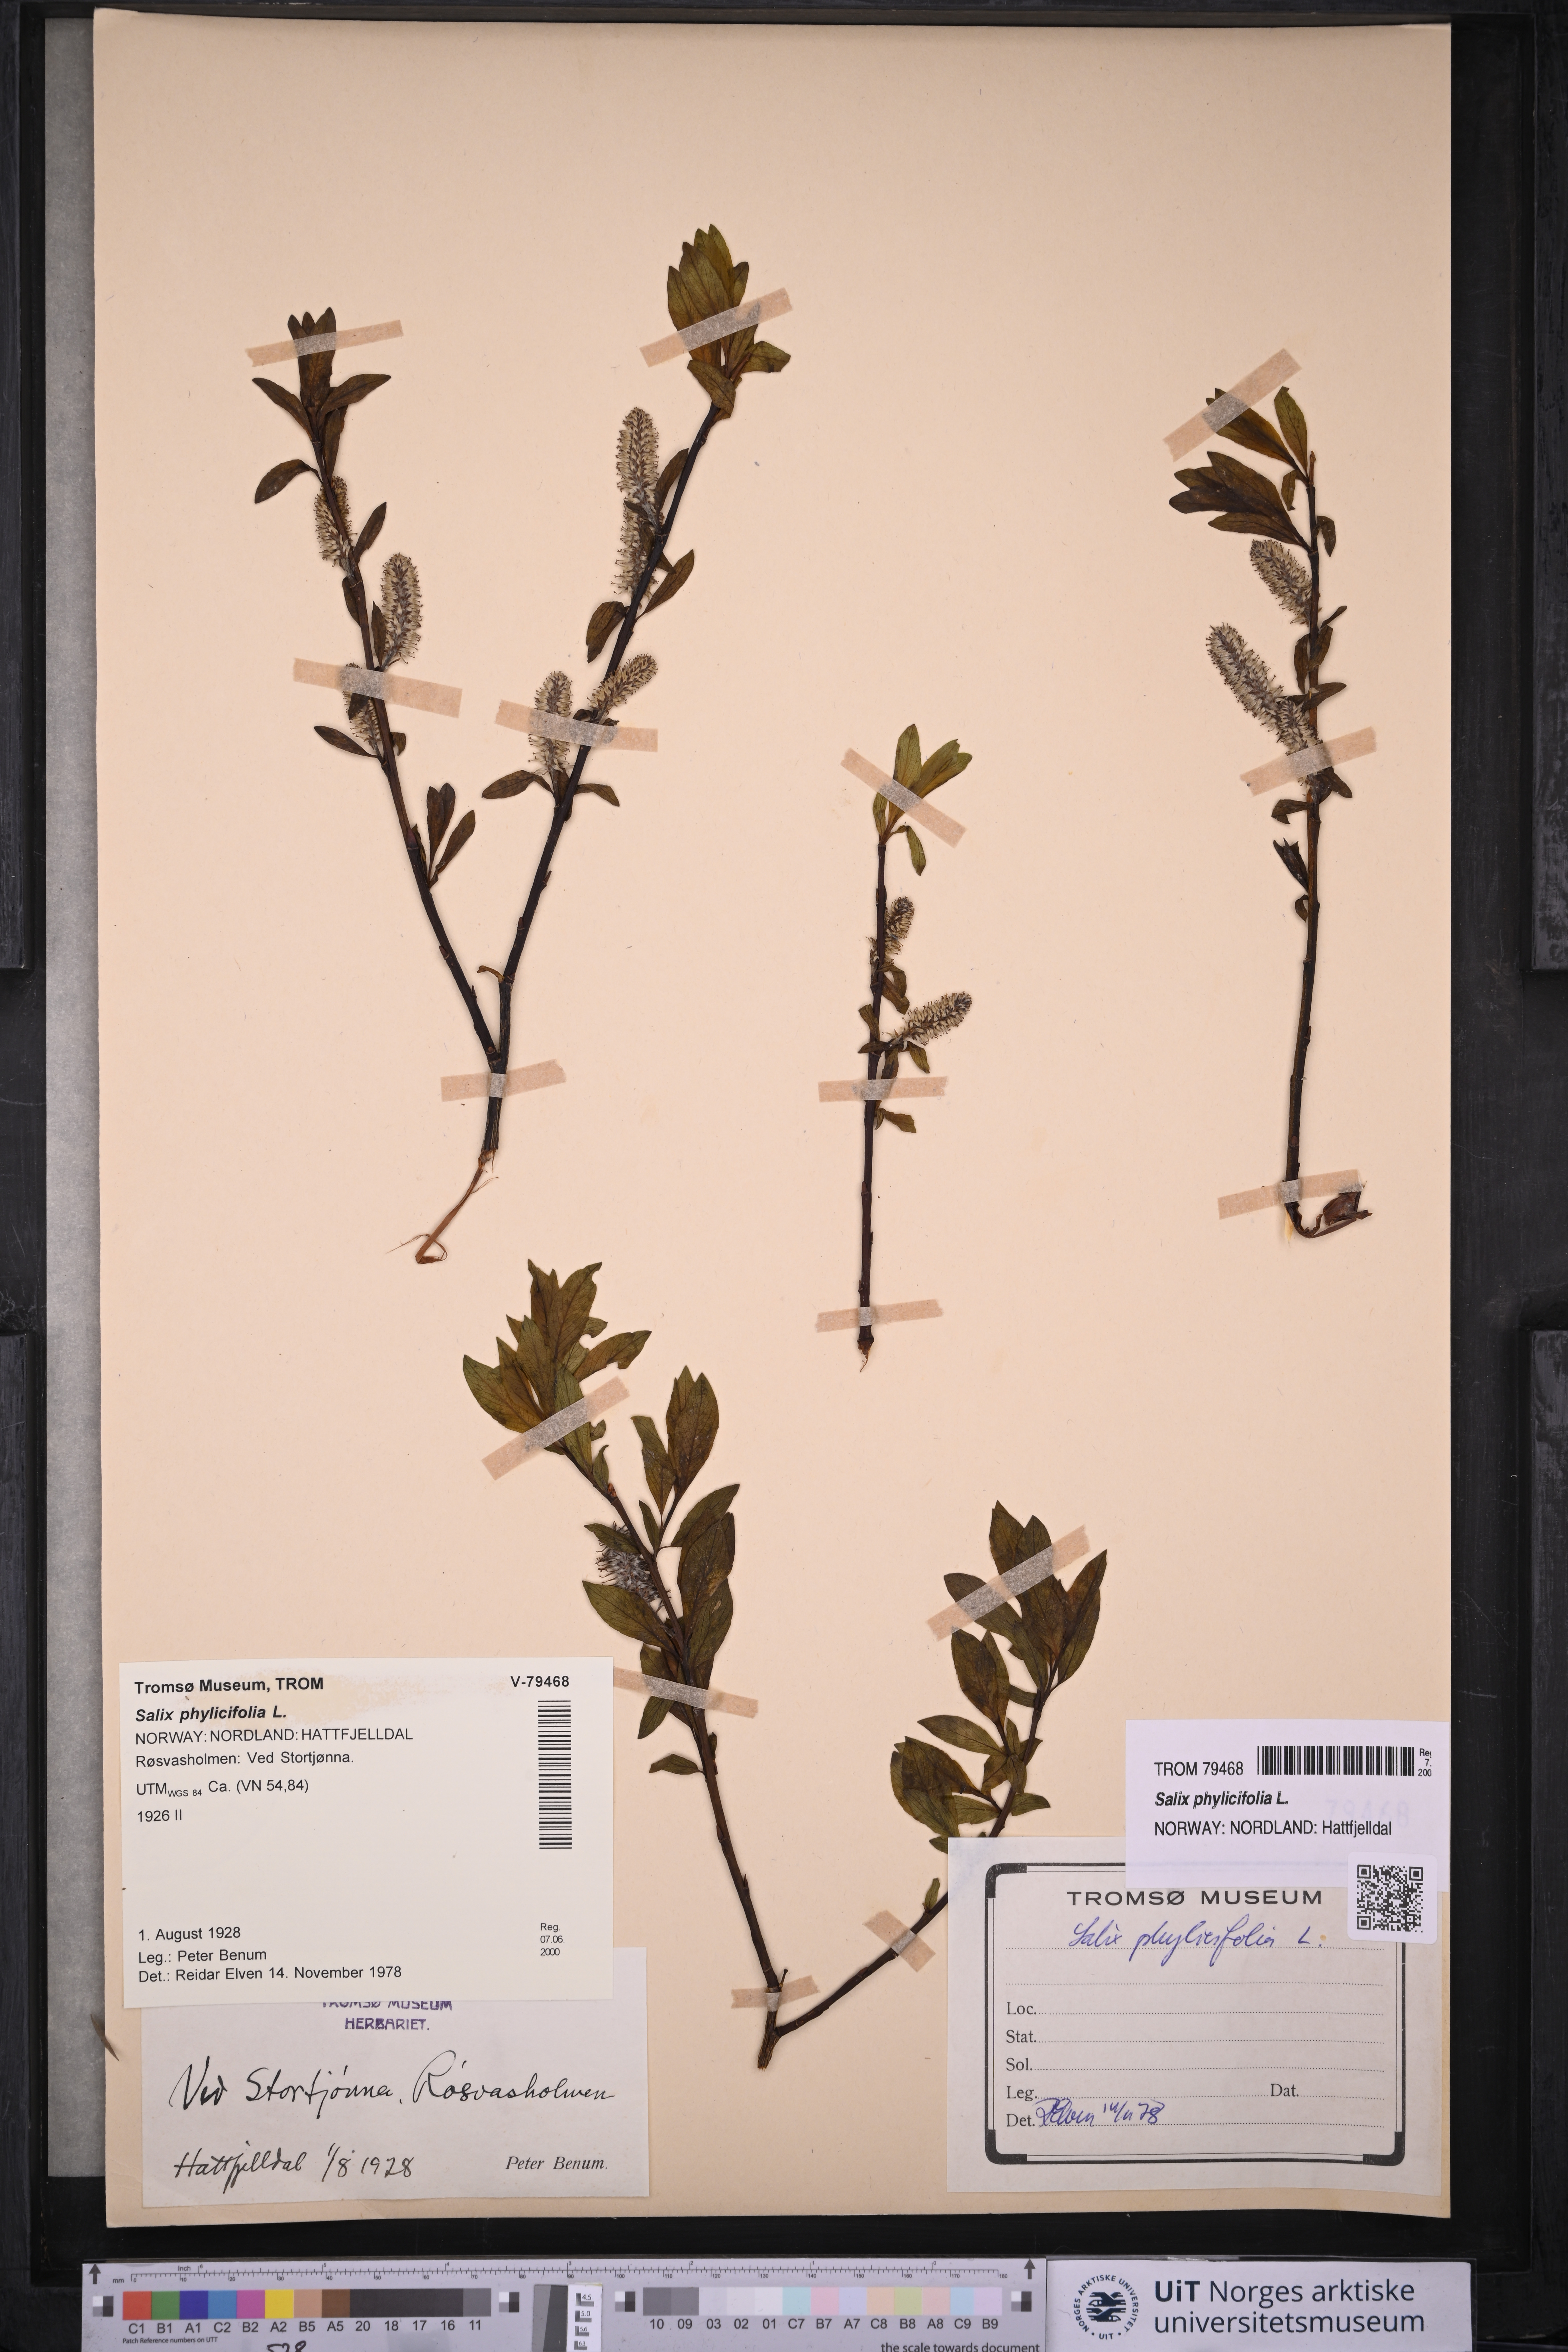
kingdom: Plantae
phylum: Tracheophyta
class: Magnoliopsida
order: Malpighiales
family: Salicaceae
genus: Salix
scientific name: Salix phylicifolia
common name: Tea-leaved willow
